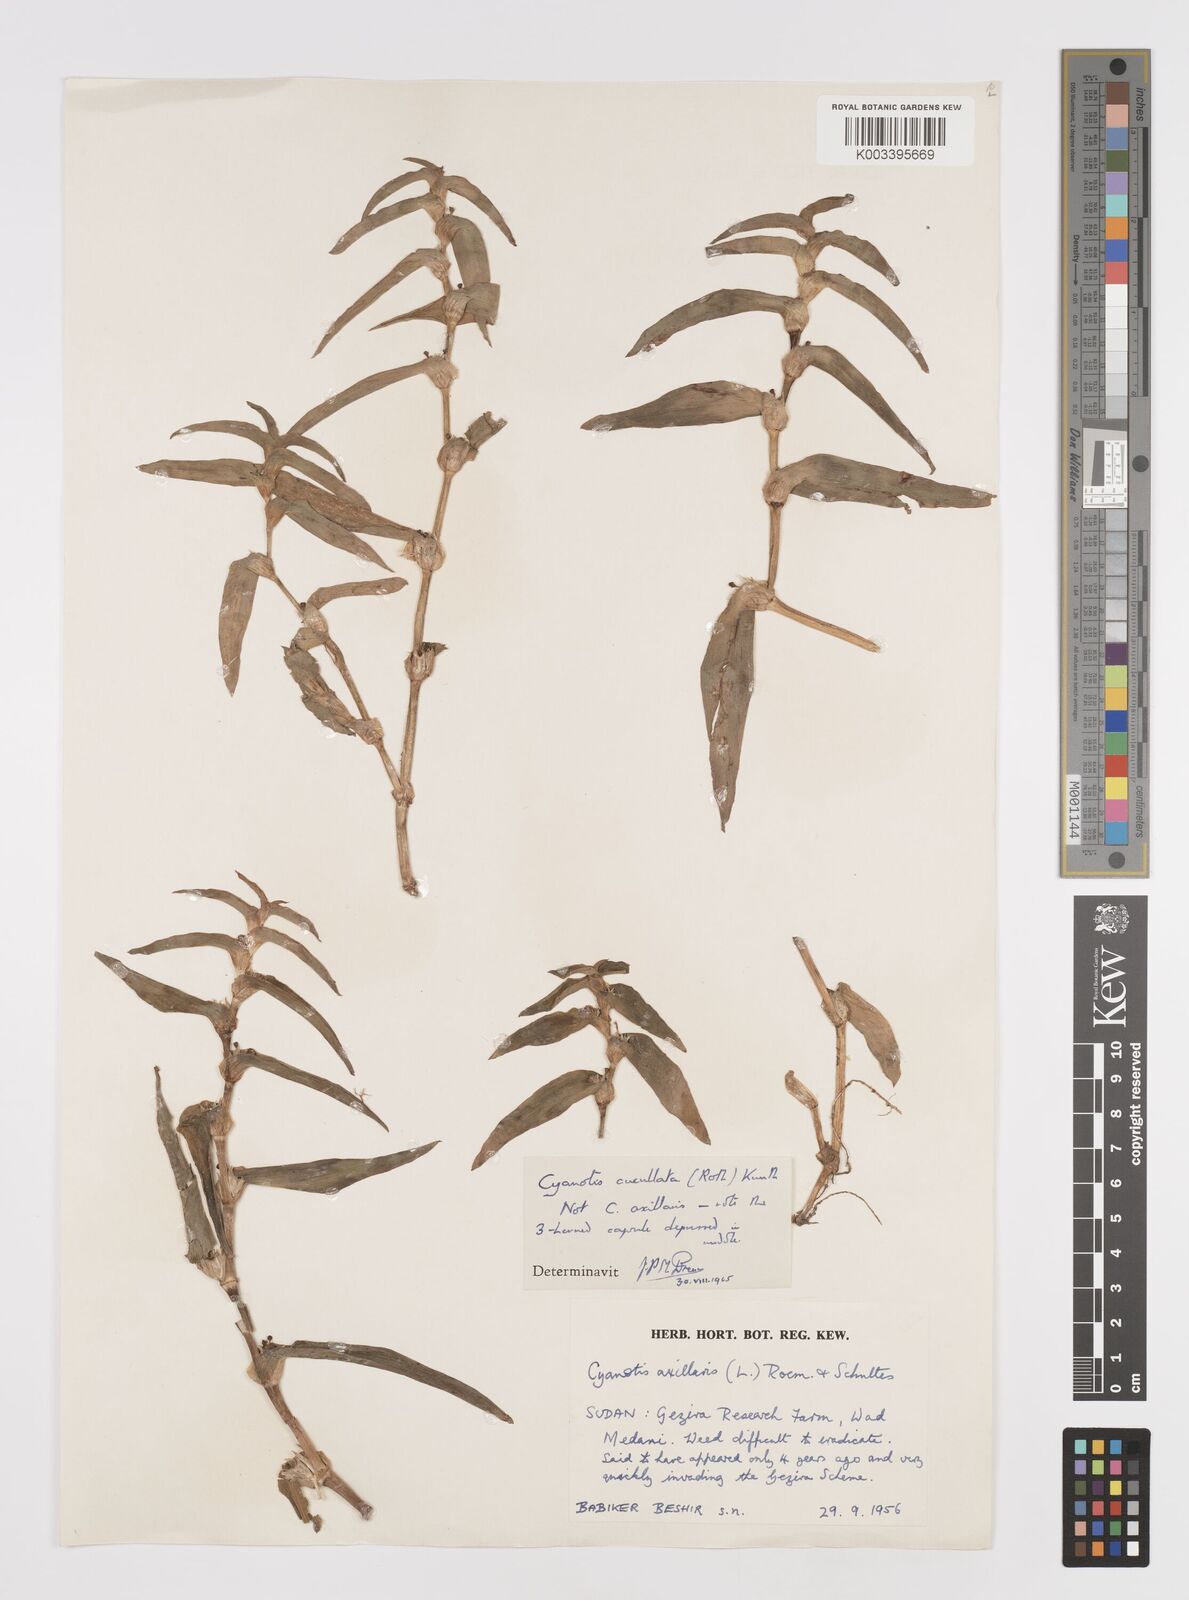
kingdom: Plantae
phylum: Tracheophyta
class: Liliopsida
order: Commelinales
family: Commelinaceae
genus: Cyanotis
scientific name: Cyanotis cucullata
